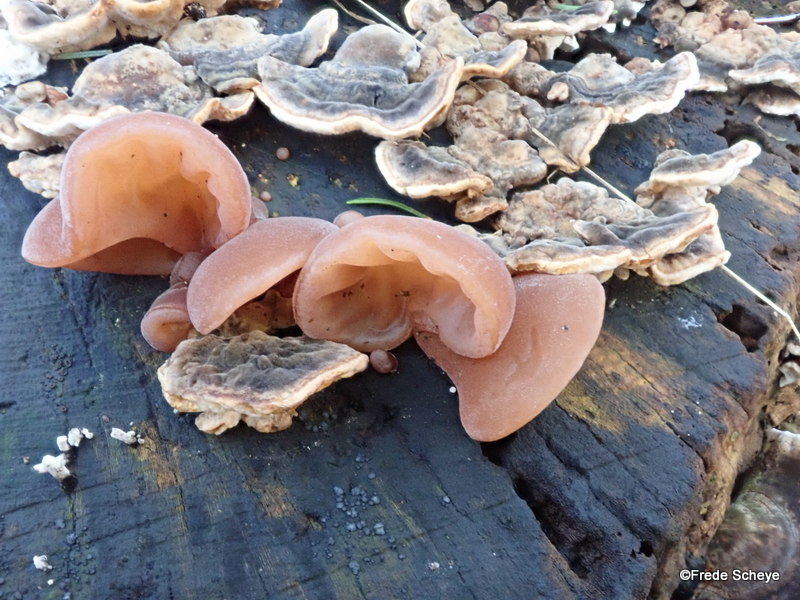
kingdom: Fungi
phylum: Basidiomycota
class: Agaricomycetes
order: Auriculariales
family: Auriculariaceae
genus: Auricularia
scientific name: Auricularia auricula-judae
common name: almindelig judasøre
